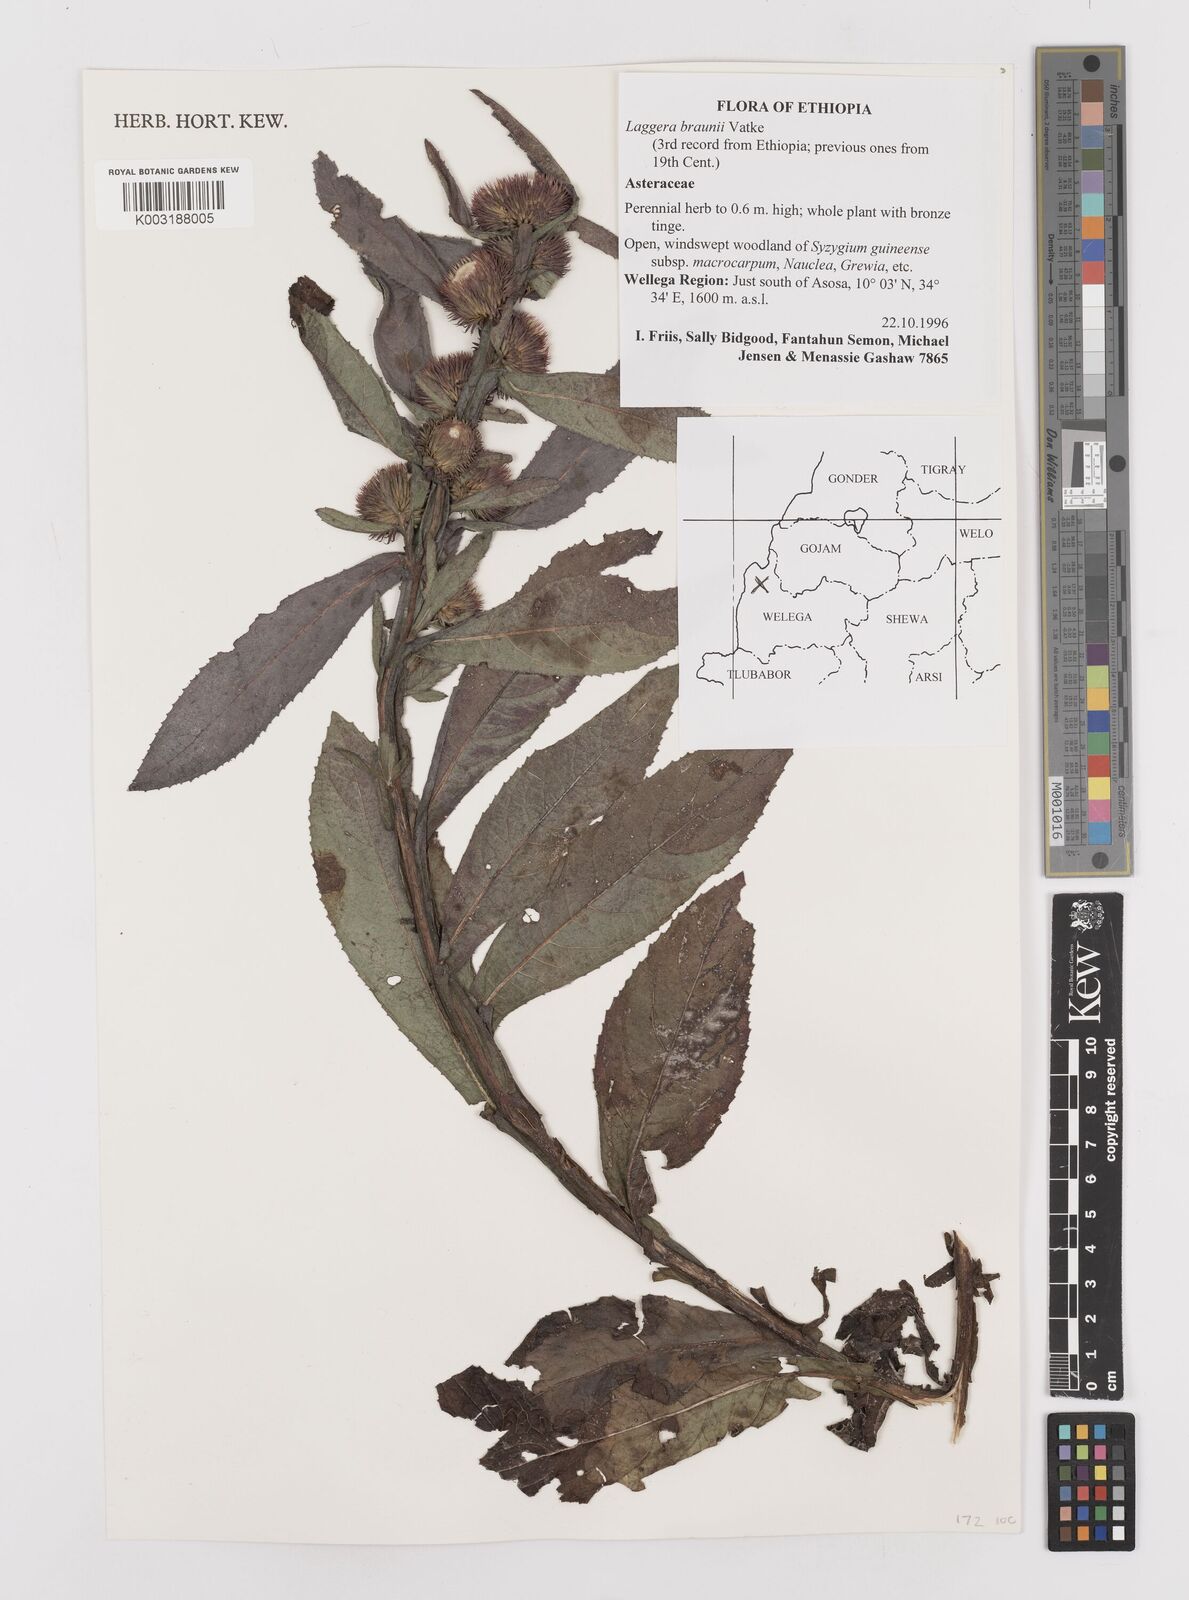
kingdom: Plantae
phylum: Tracheophyta
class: Magnoliopsida
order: Asterales
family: Asteraceae
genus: Laggera
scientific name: Laggera braunii
